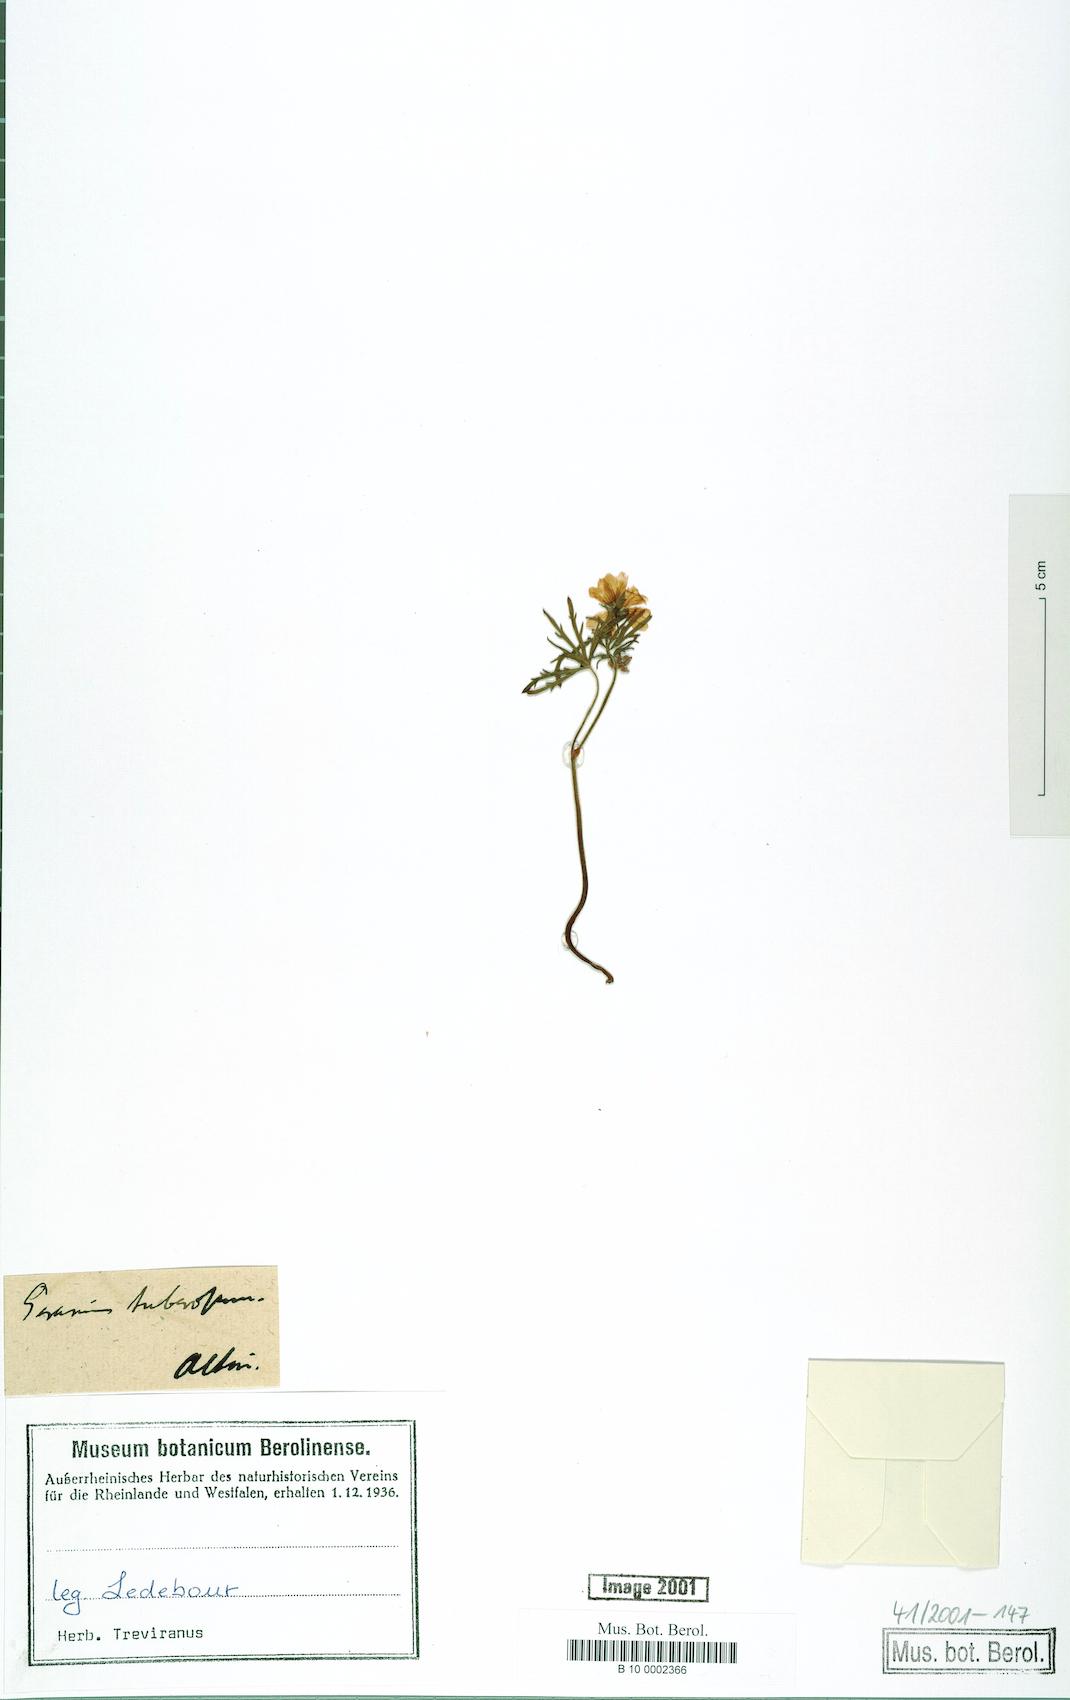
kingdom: Plantae
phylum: Tracheophyta
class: Magnoliopsida
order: Geraniales
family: Geraniaceae
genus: Geranium
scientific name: Geranium tuberosum
